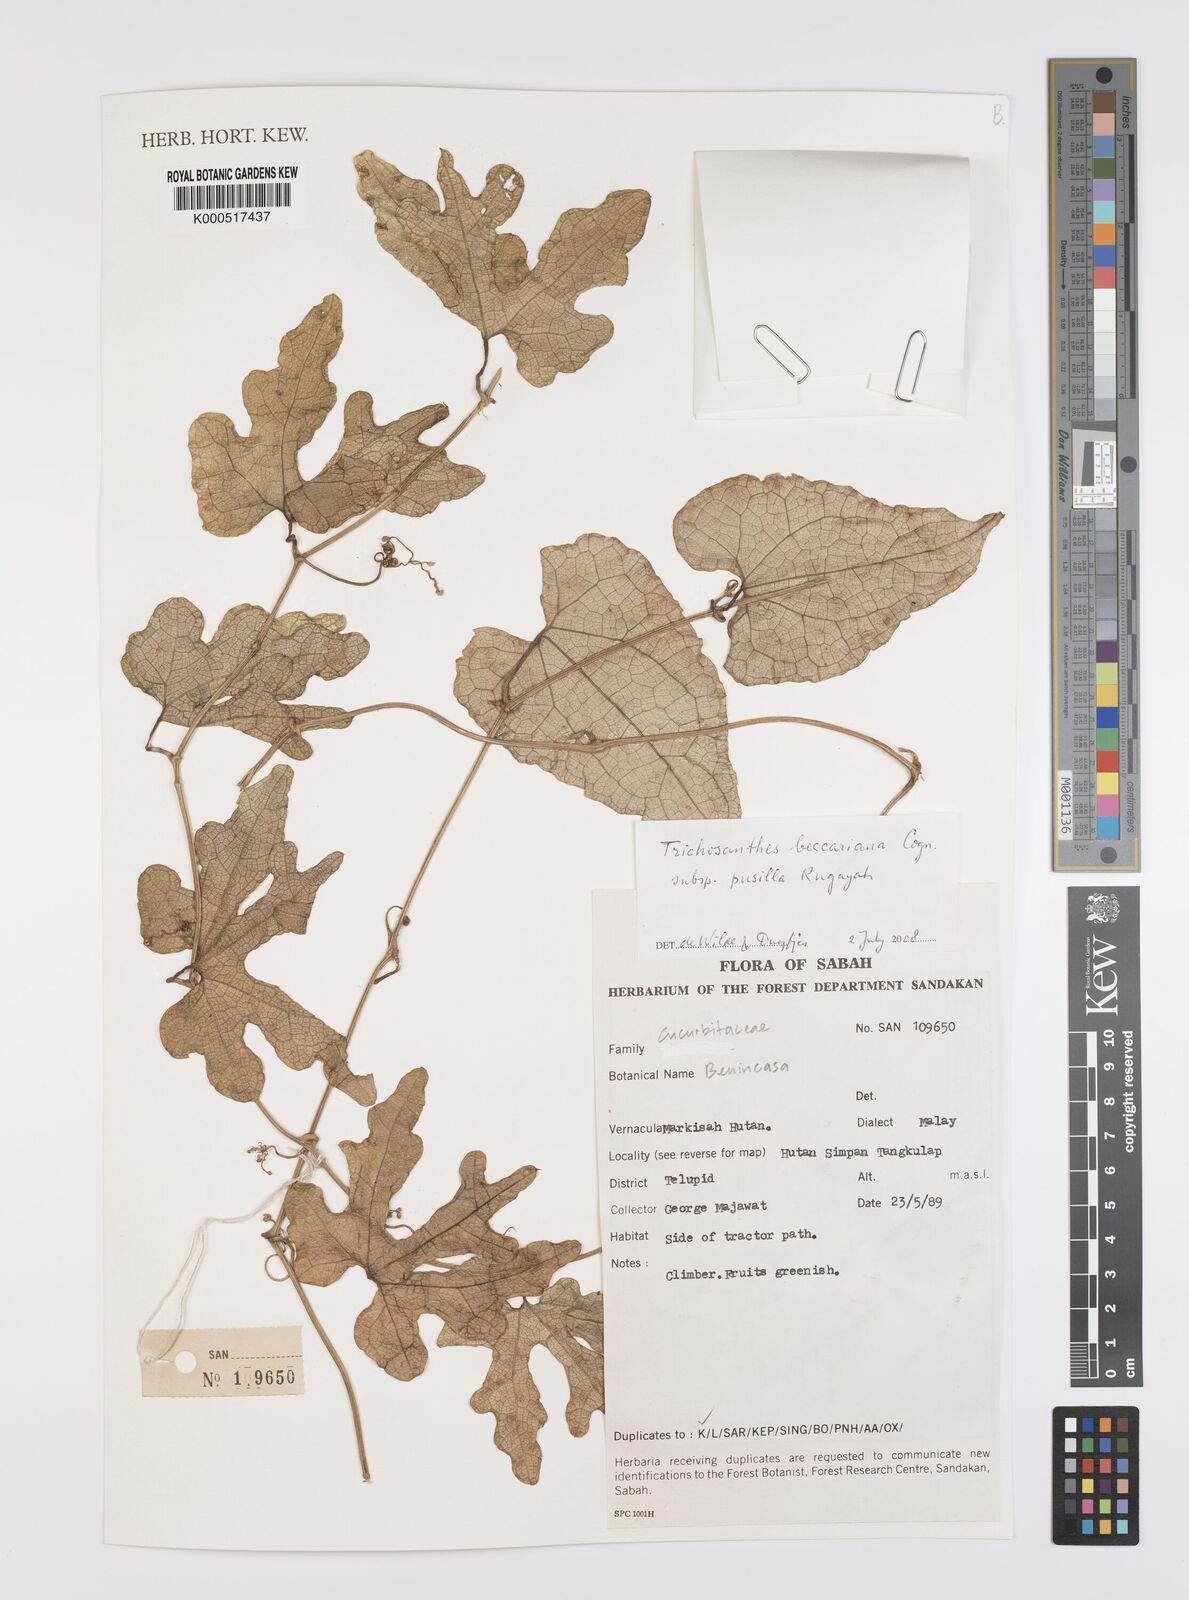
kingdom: Plantae
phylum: Tracheophyta
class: Magnoliopsida
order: Cucurbitales
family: Cucurbitaceae
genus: Trichosanthes
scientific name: Trichosanthes beccariana
